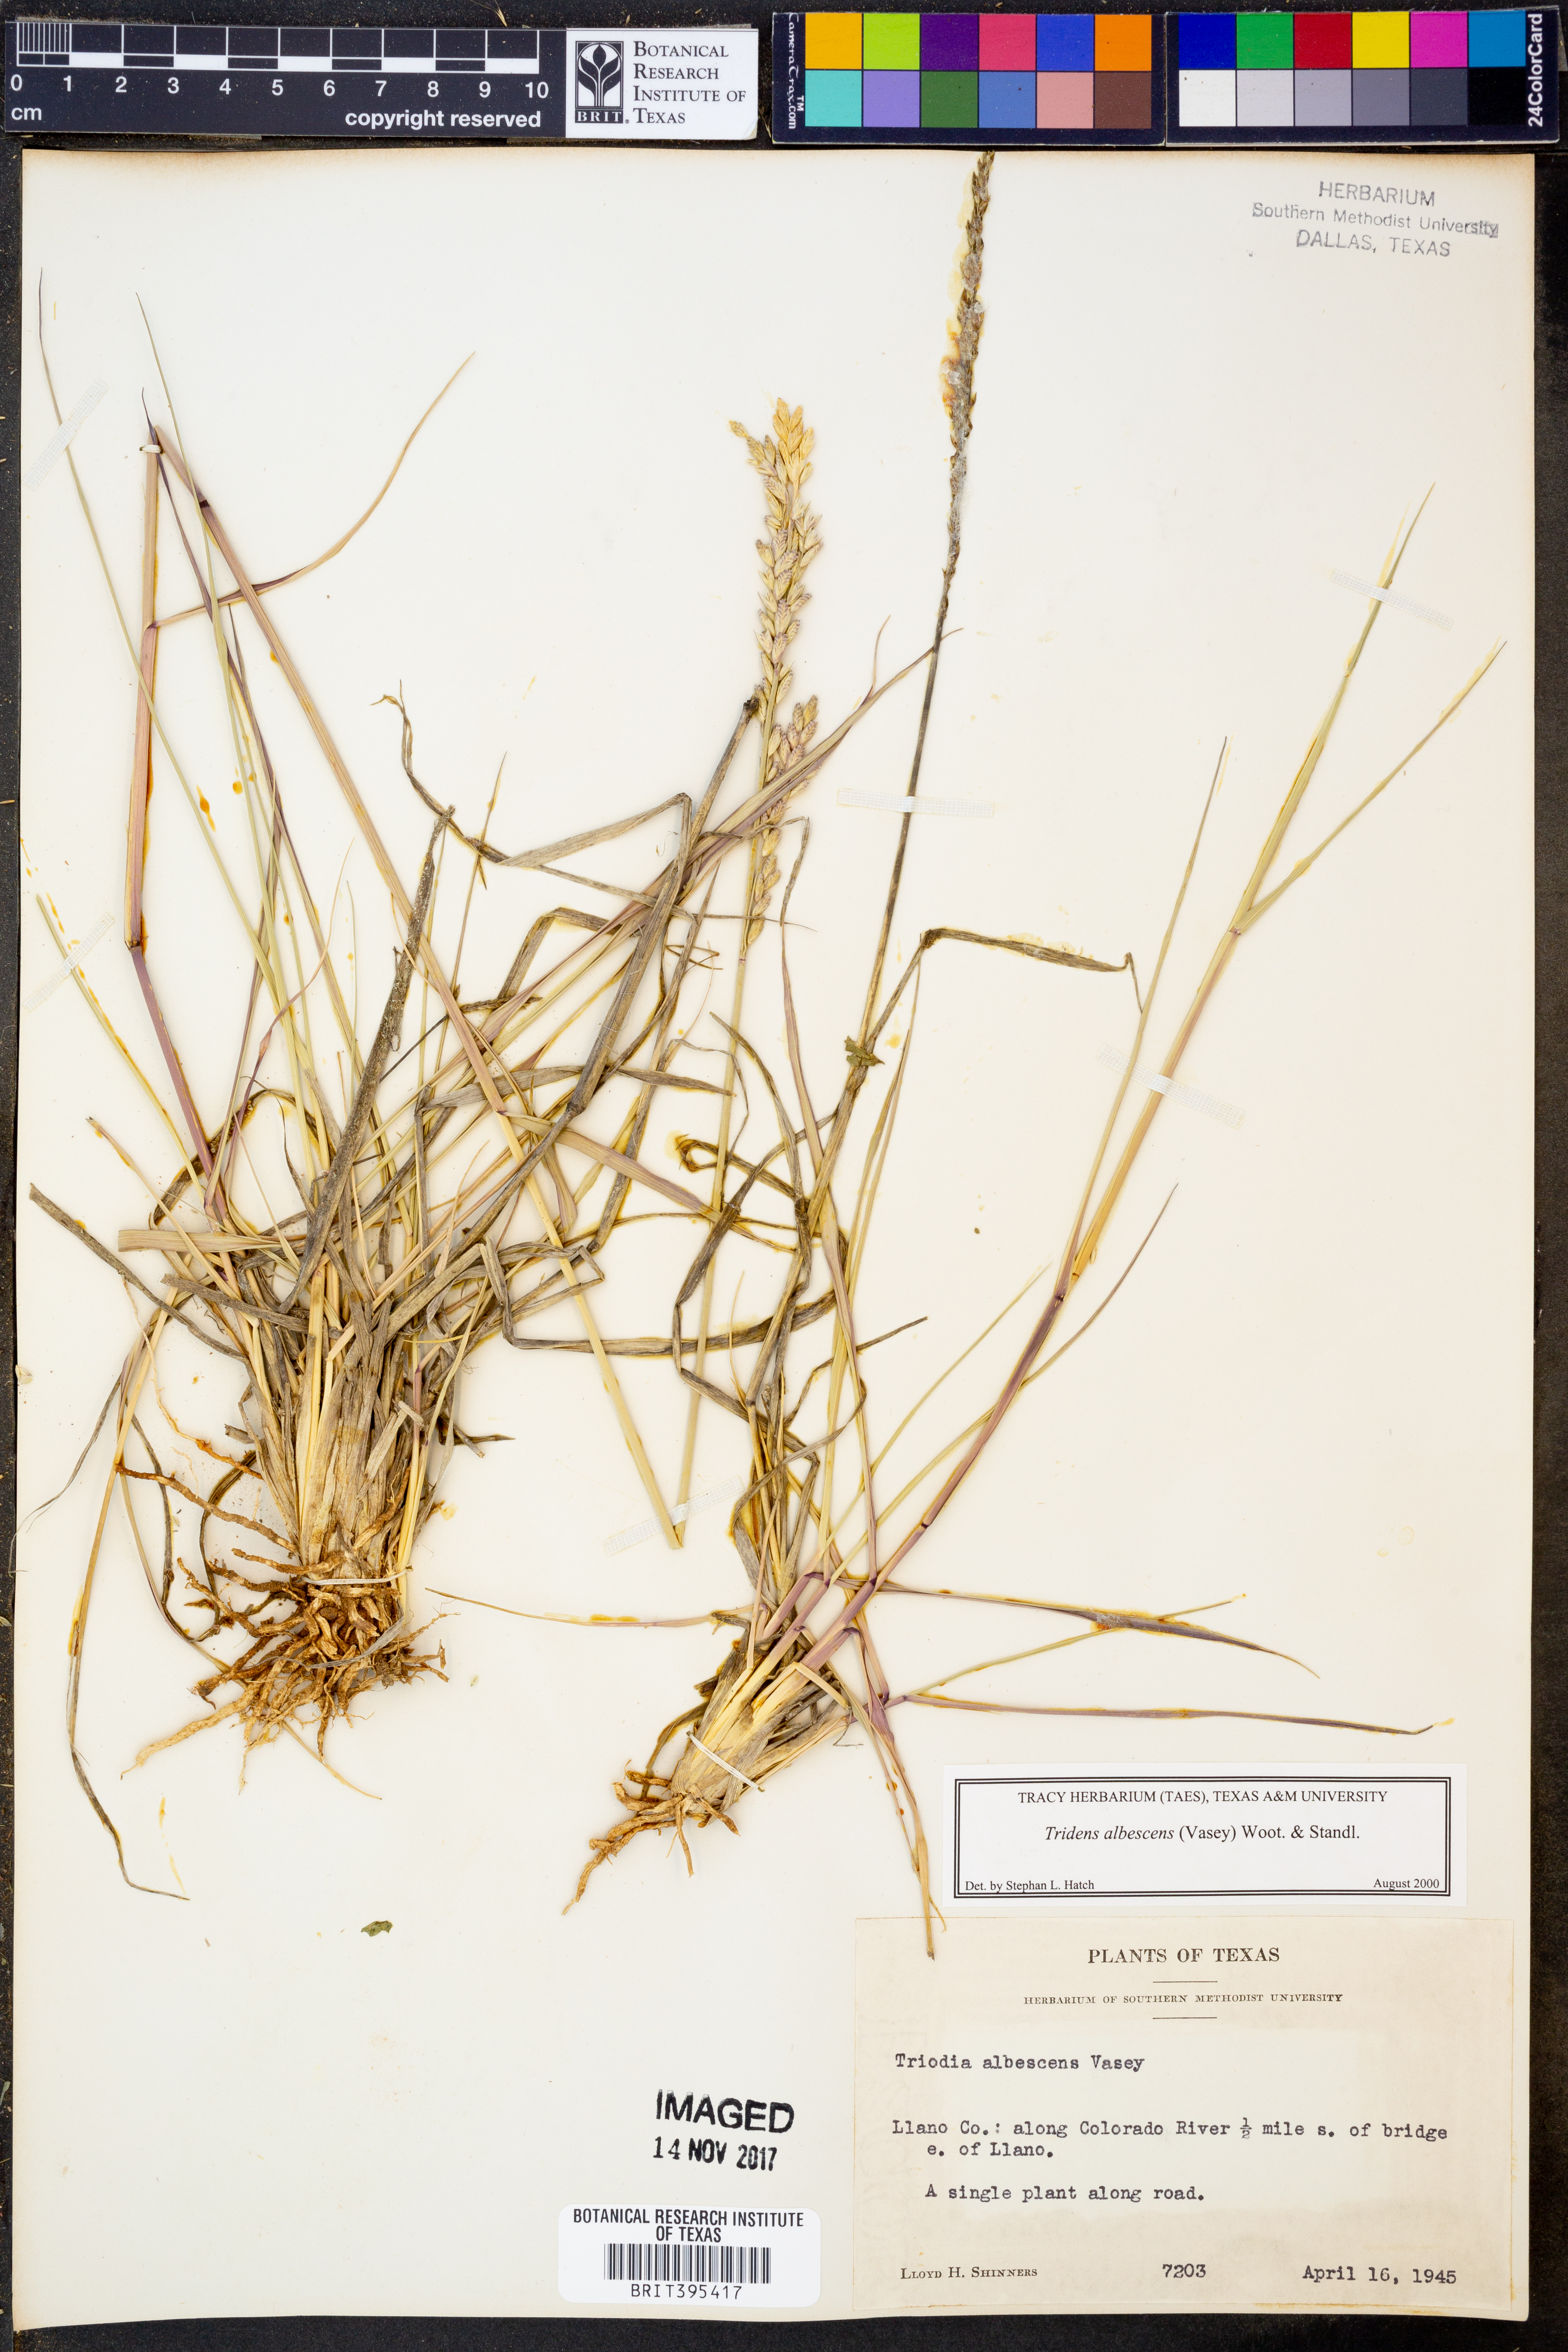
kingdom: Plantae
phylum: Tracheophyta
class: Liliopsida
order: Poales
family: Poaceae
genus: Tridens
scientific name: Tridens albescens
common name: White tridens
